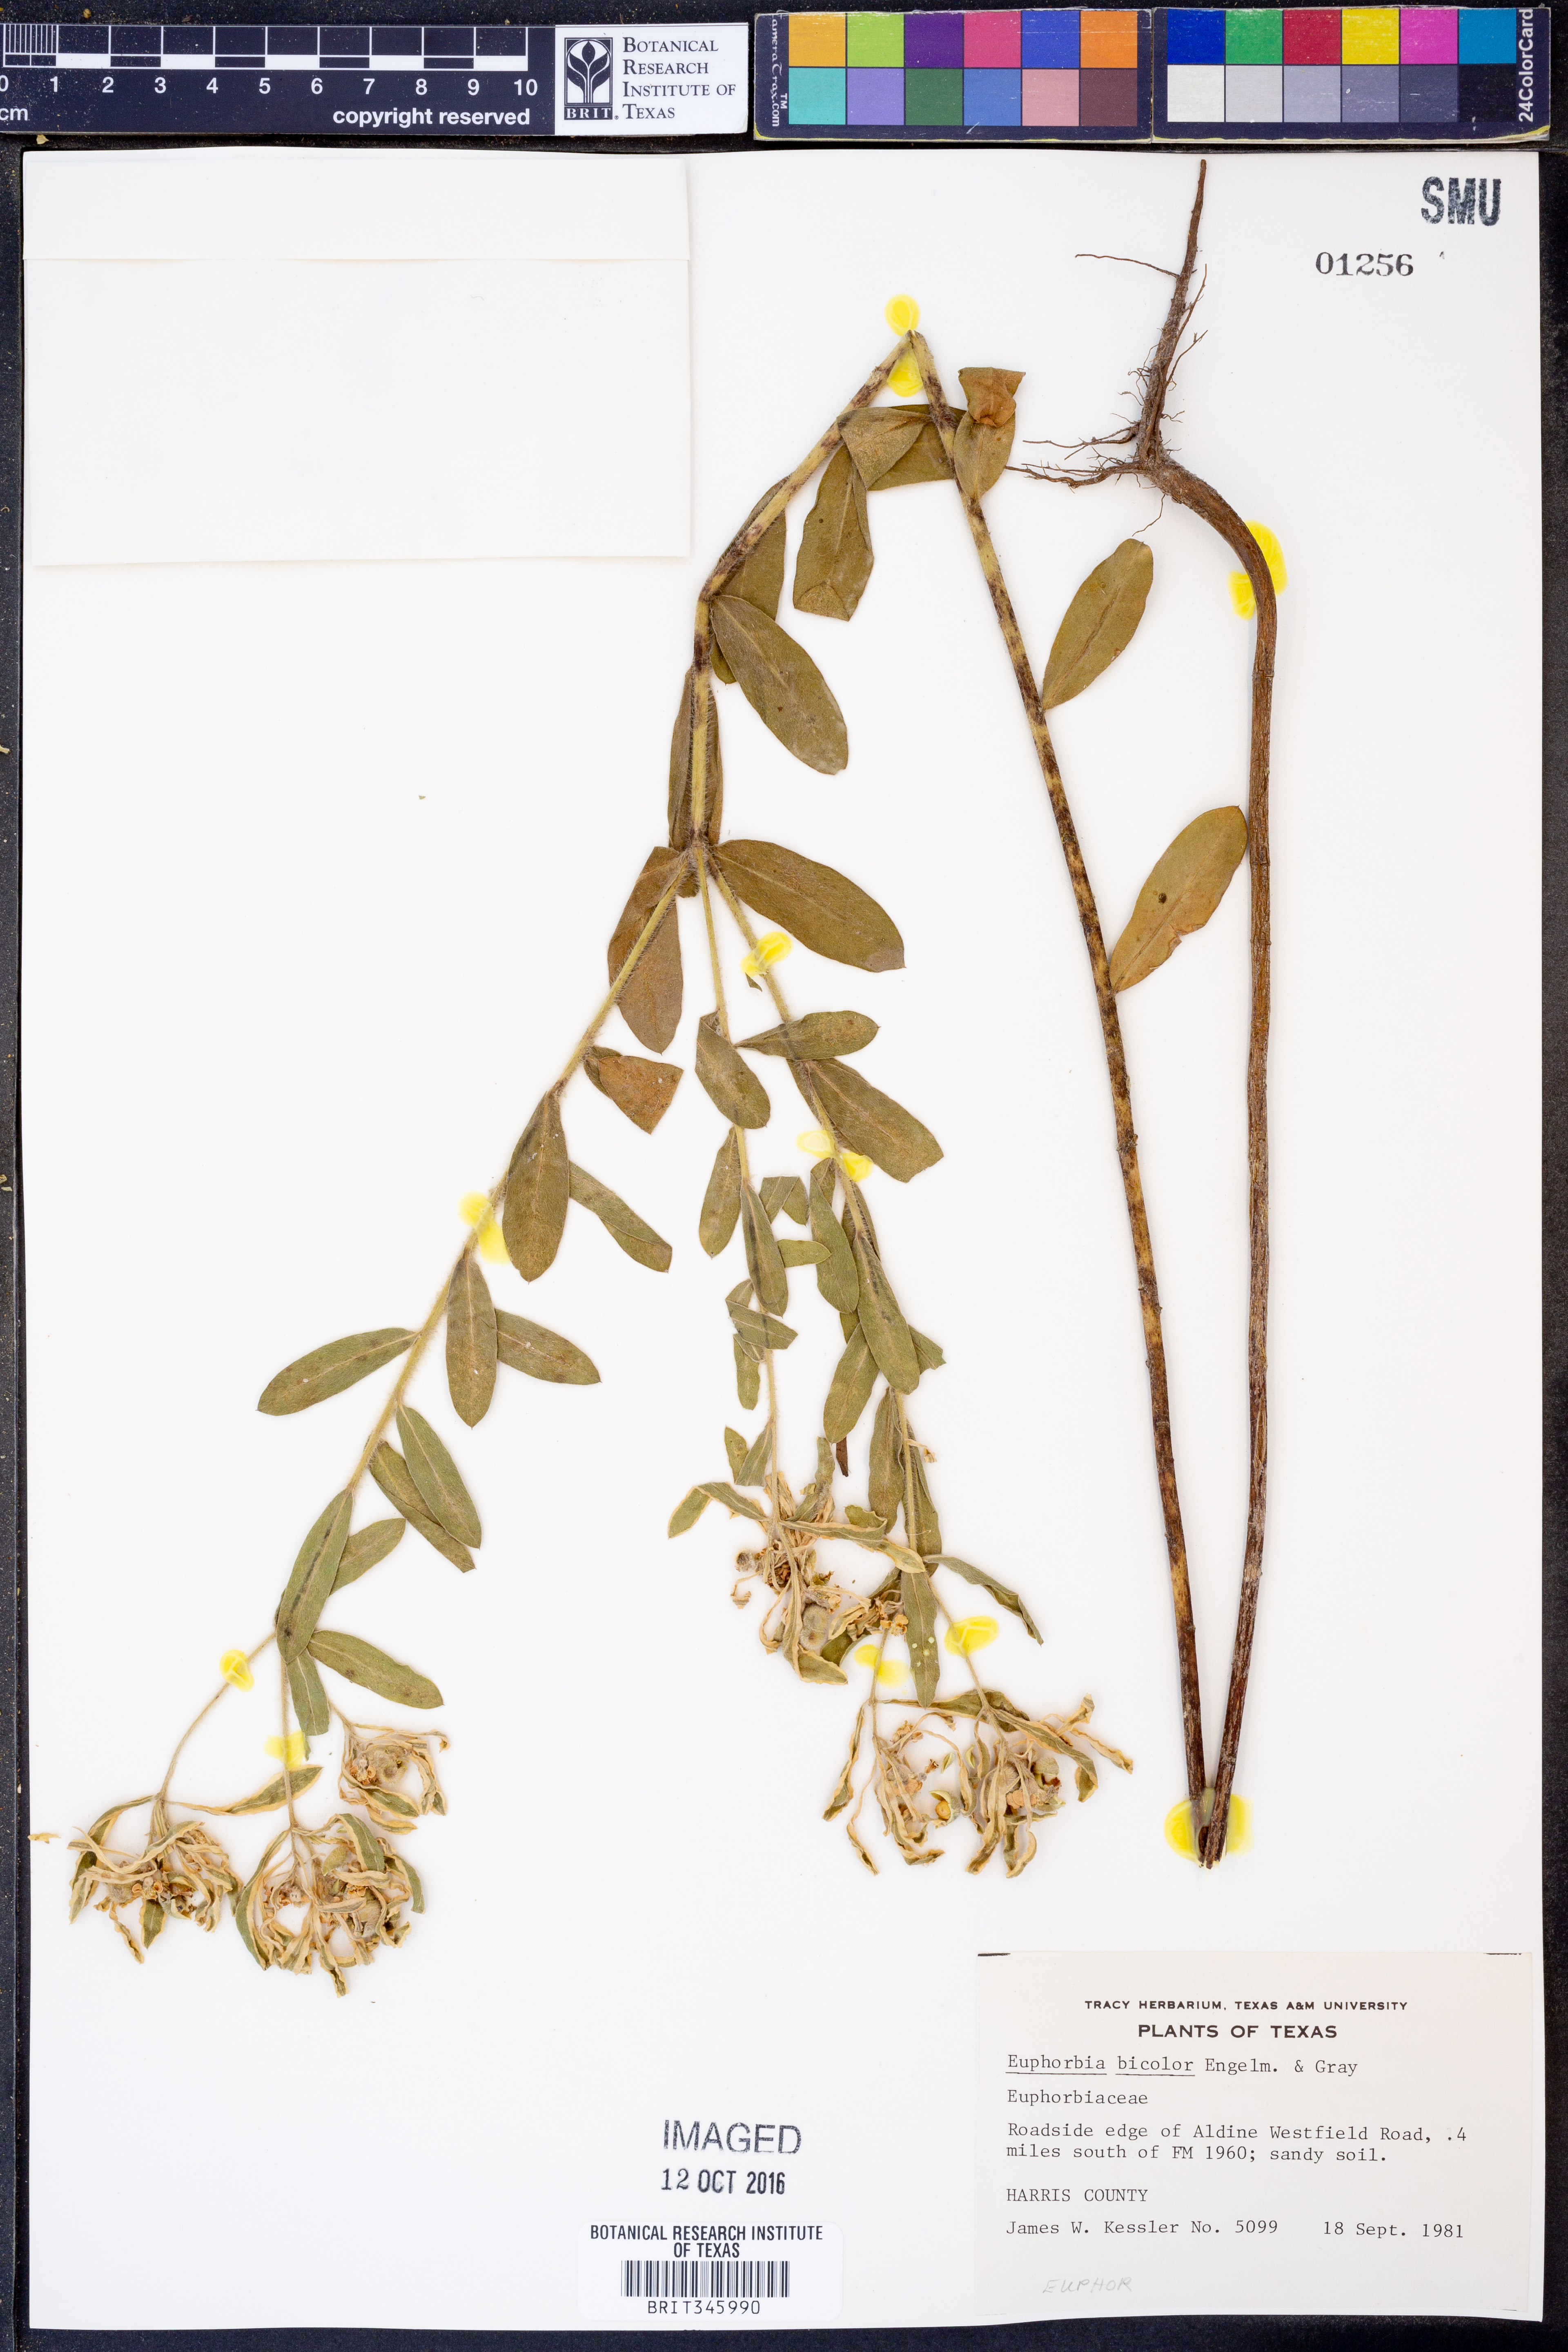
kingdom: Plantae
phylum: Tracheophyta
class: Magnoliopsida
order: Malpighiales
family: Euphorbiaceae
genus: Euphorbia
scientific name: Euphorbia bicolor
